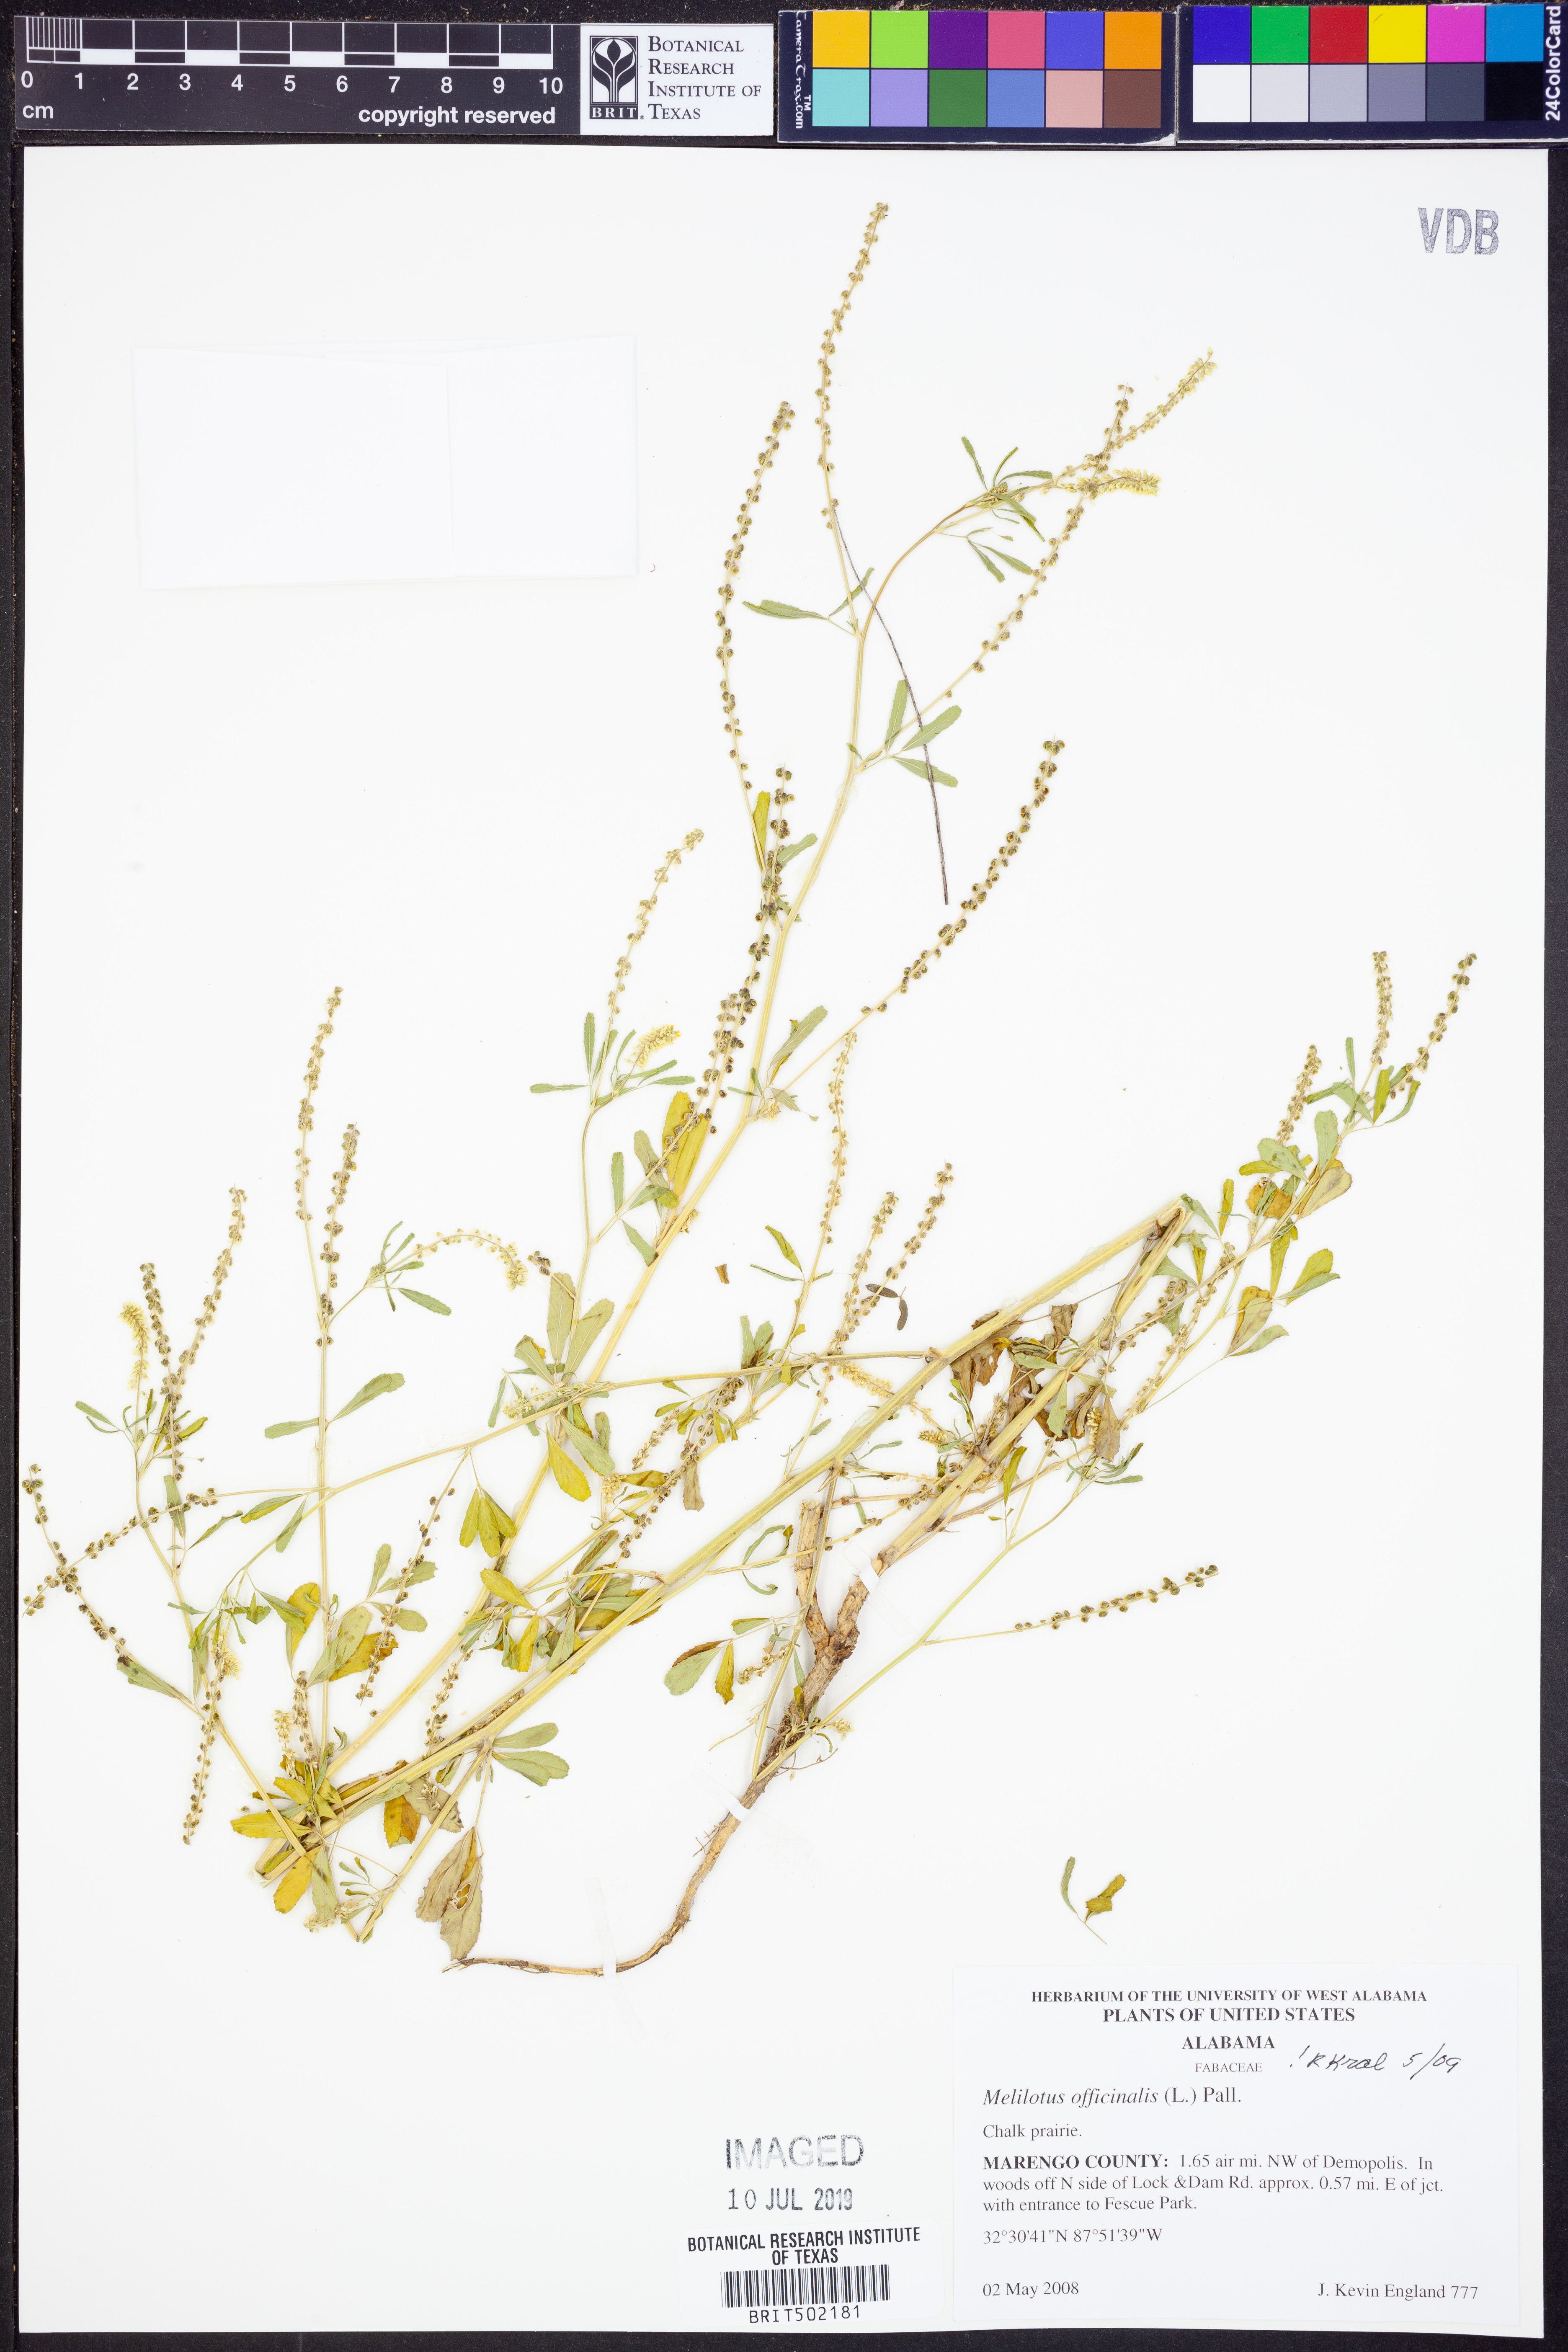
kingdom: Plantae
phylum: Tracheophyta
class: Magnoliopsida
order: Fabales
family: Fabaceae
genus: Melilotus
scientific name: Melilotus officinalis
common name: Sweetclover
